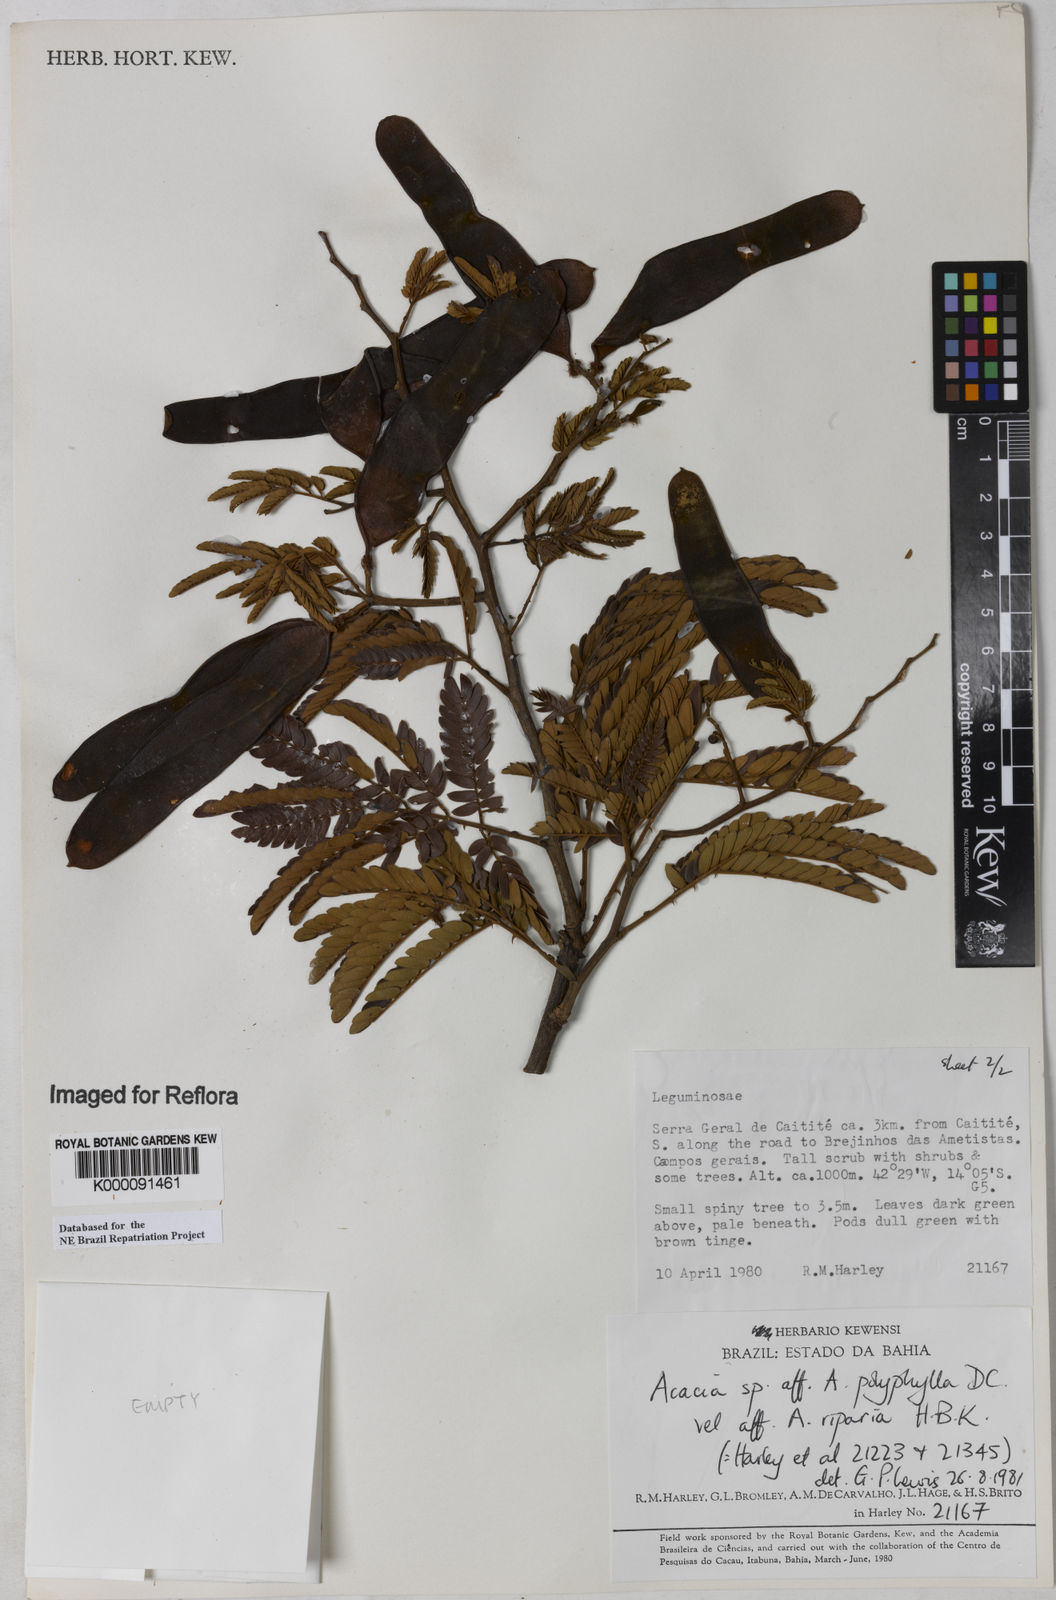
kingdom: Plantae
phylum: Tracheophyta
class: Magnoliopsida
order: Fabales
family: Fabaceae
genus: Senegalia
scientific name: Senegalia polyphylla
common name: White-tamarind
